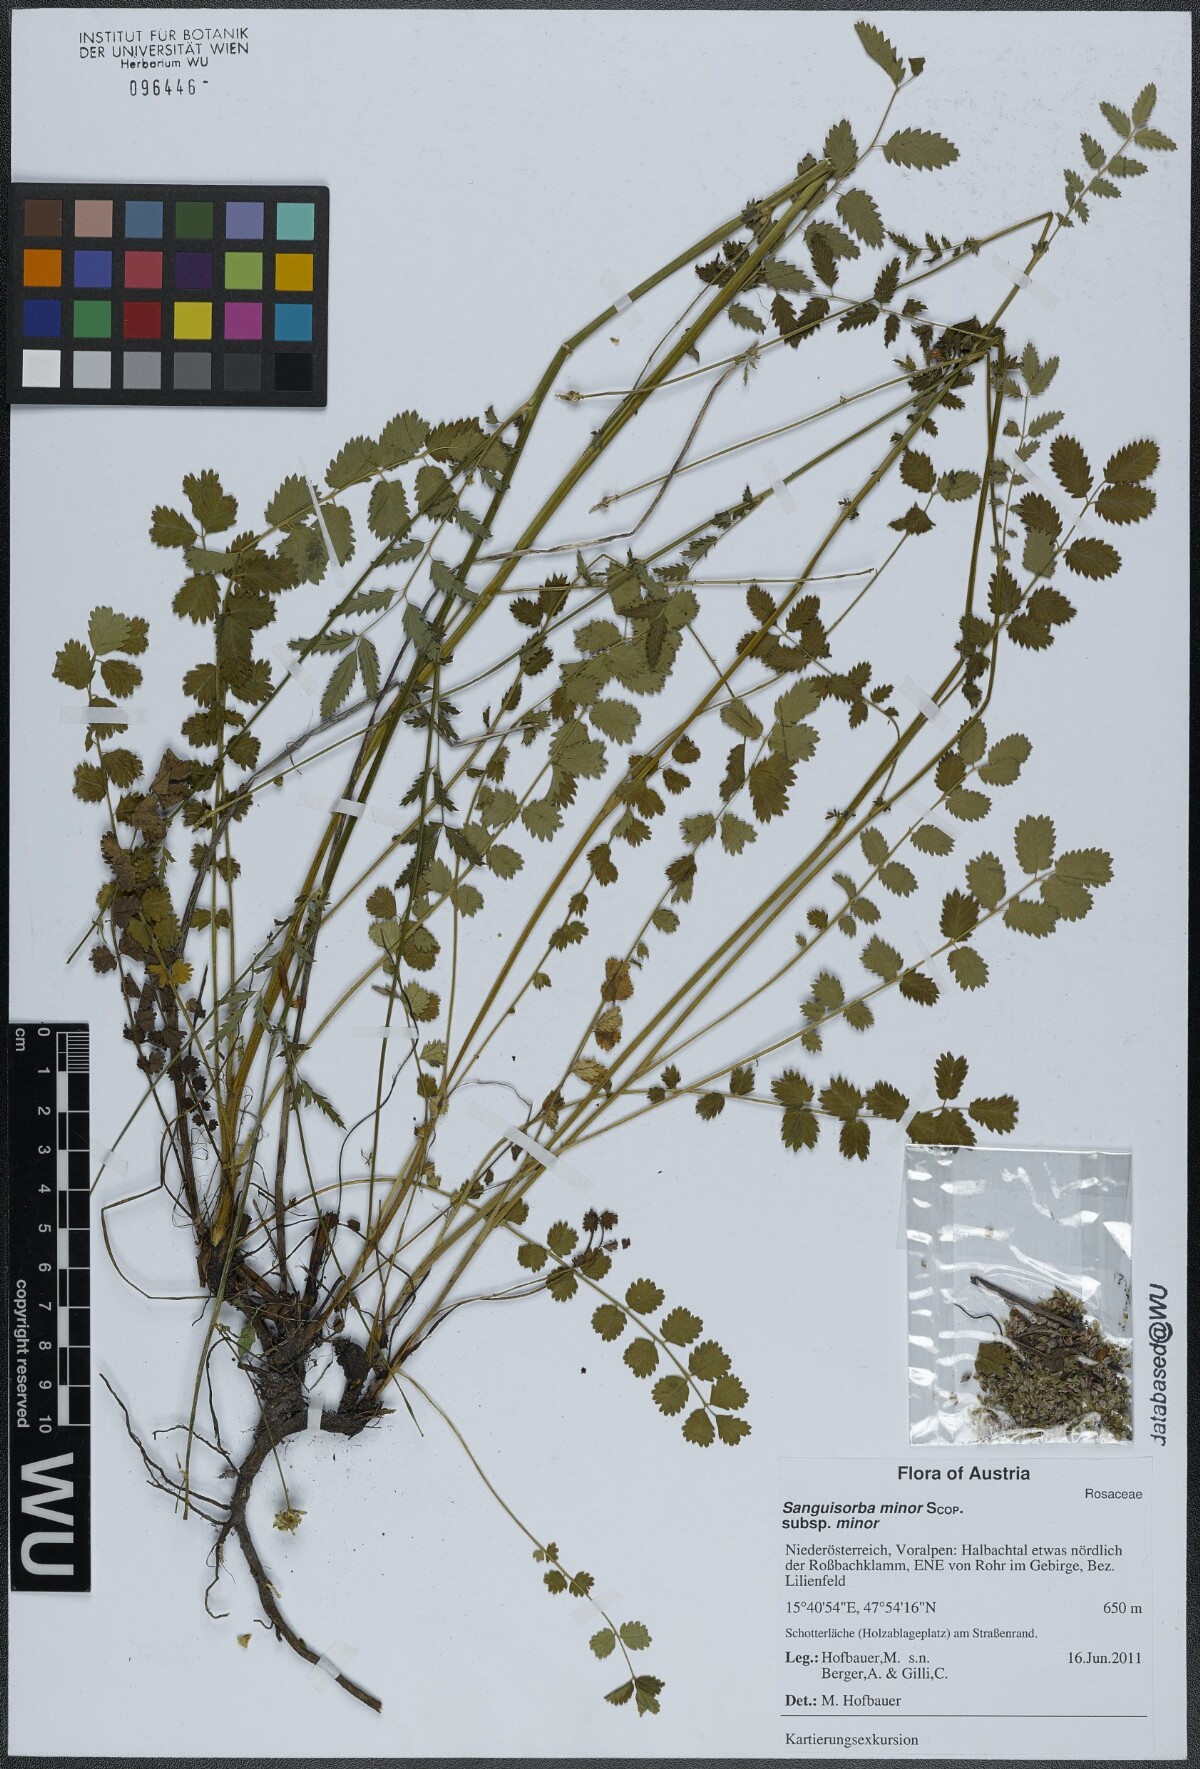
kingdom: Plantae
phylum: Tracheophyta
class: Magnoliopsida
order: Rosales
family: Rosaceae
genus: Poterium
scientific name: Poterium sanguisorba
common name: Salad burnet
